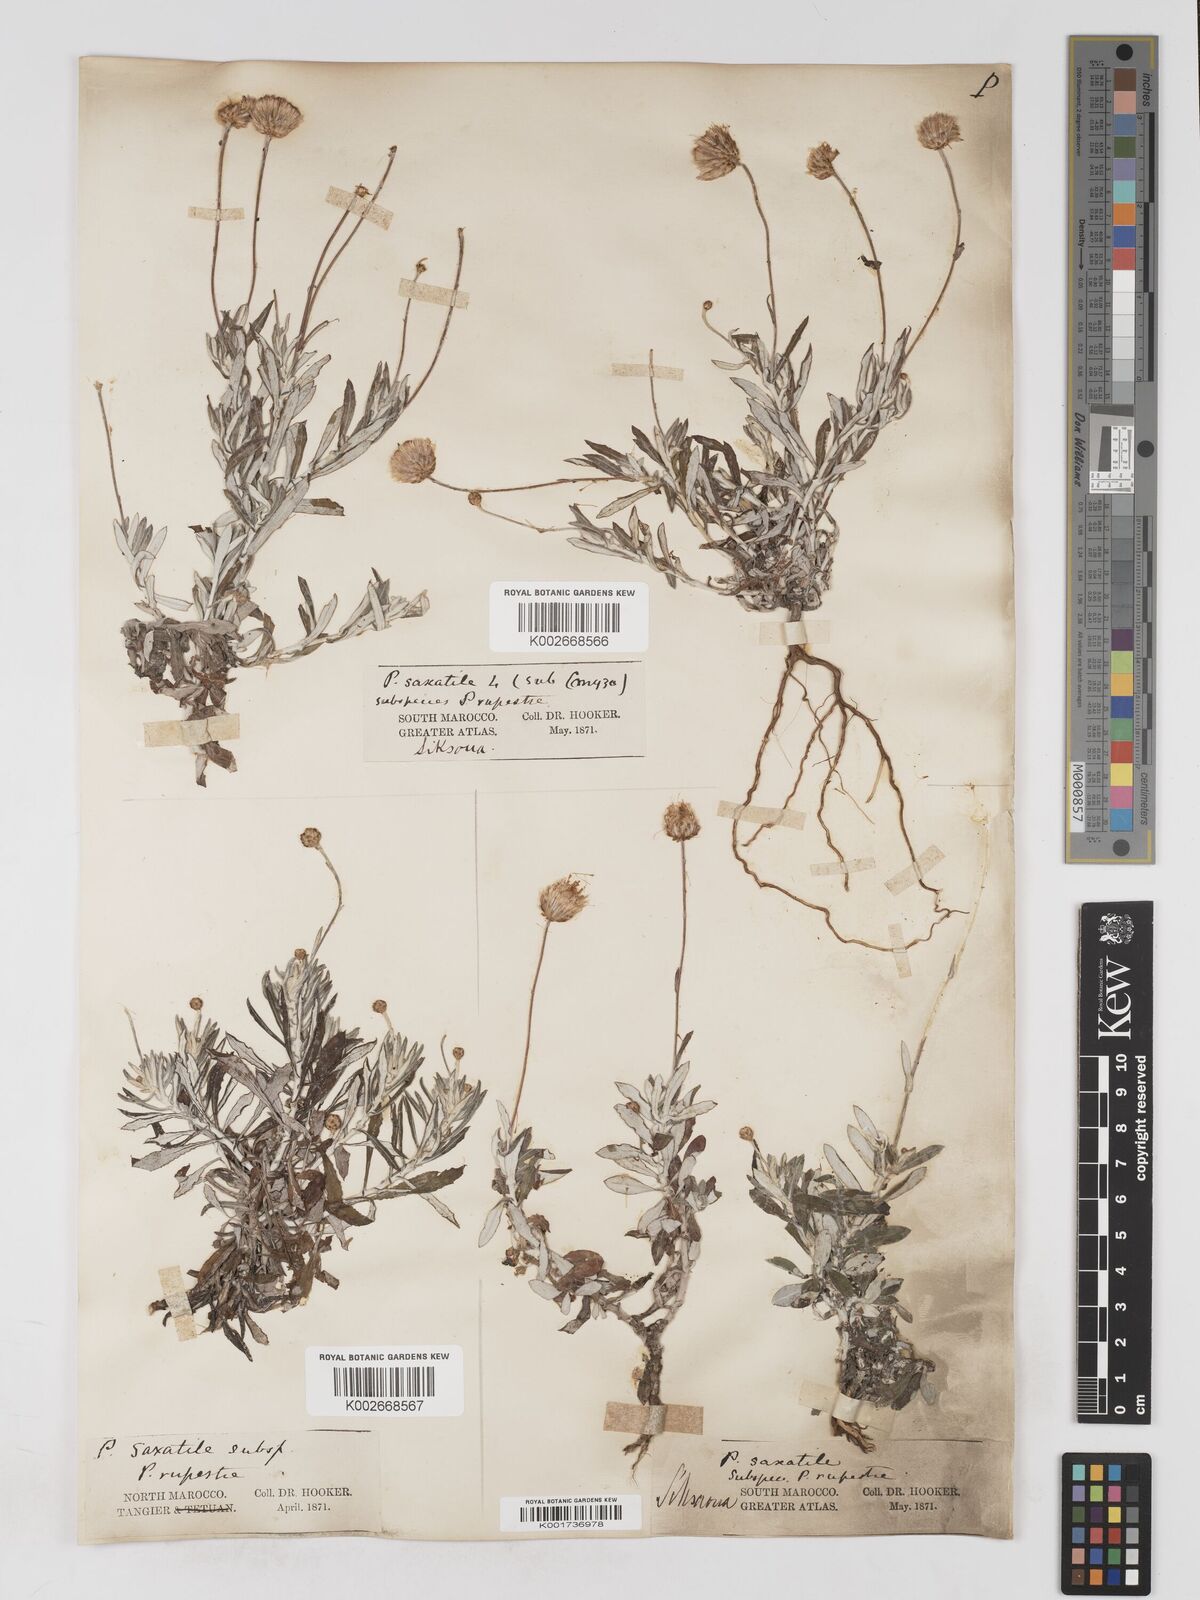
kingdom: Plantae
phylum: Tracheophyta
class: Magnoliopsida
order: Asterales
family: Asteraceae
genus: Phagnalon
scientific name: Phagnalon rupestre
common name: Rock phagnalon
